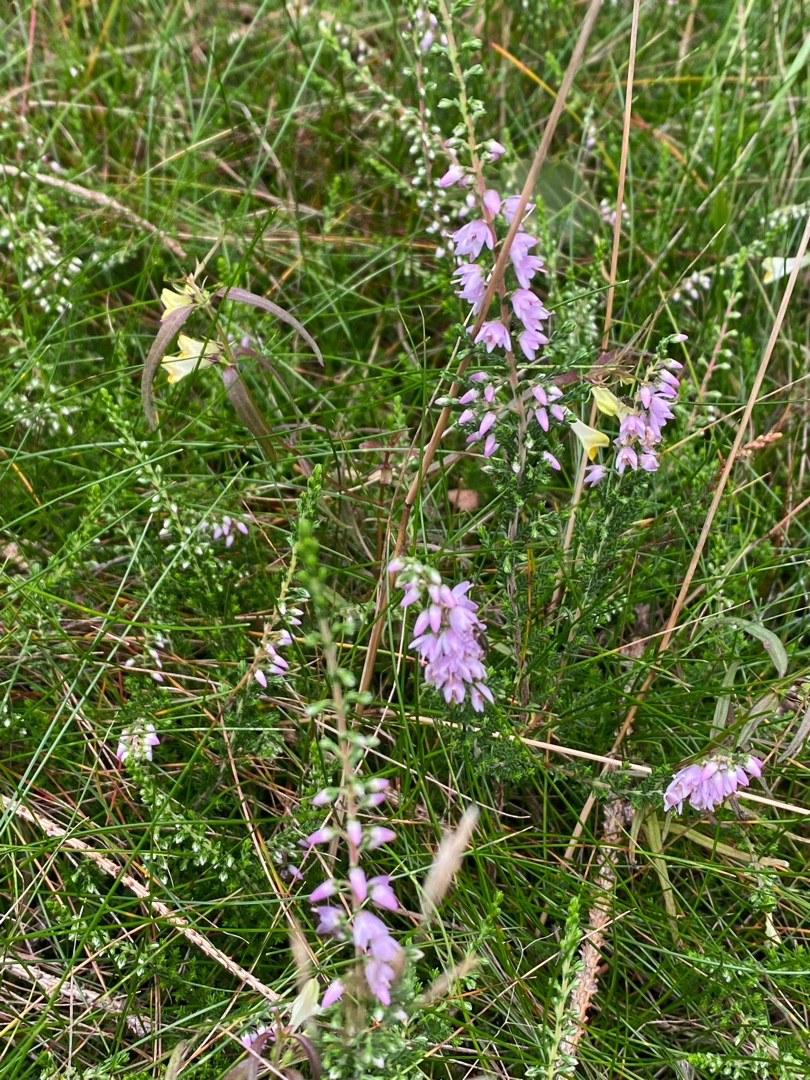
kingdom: Plantae
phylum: Tracheophyta
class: Magnoliopsida
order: Ericales
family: Ericaceae
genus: Calluna
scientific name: Calluna vulgaris
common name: Hedelyng
